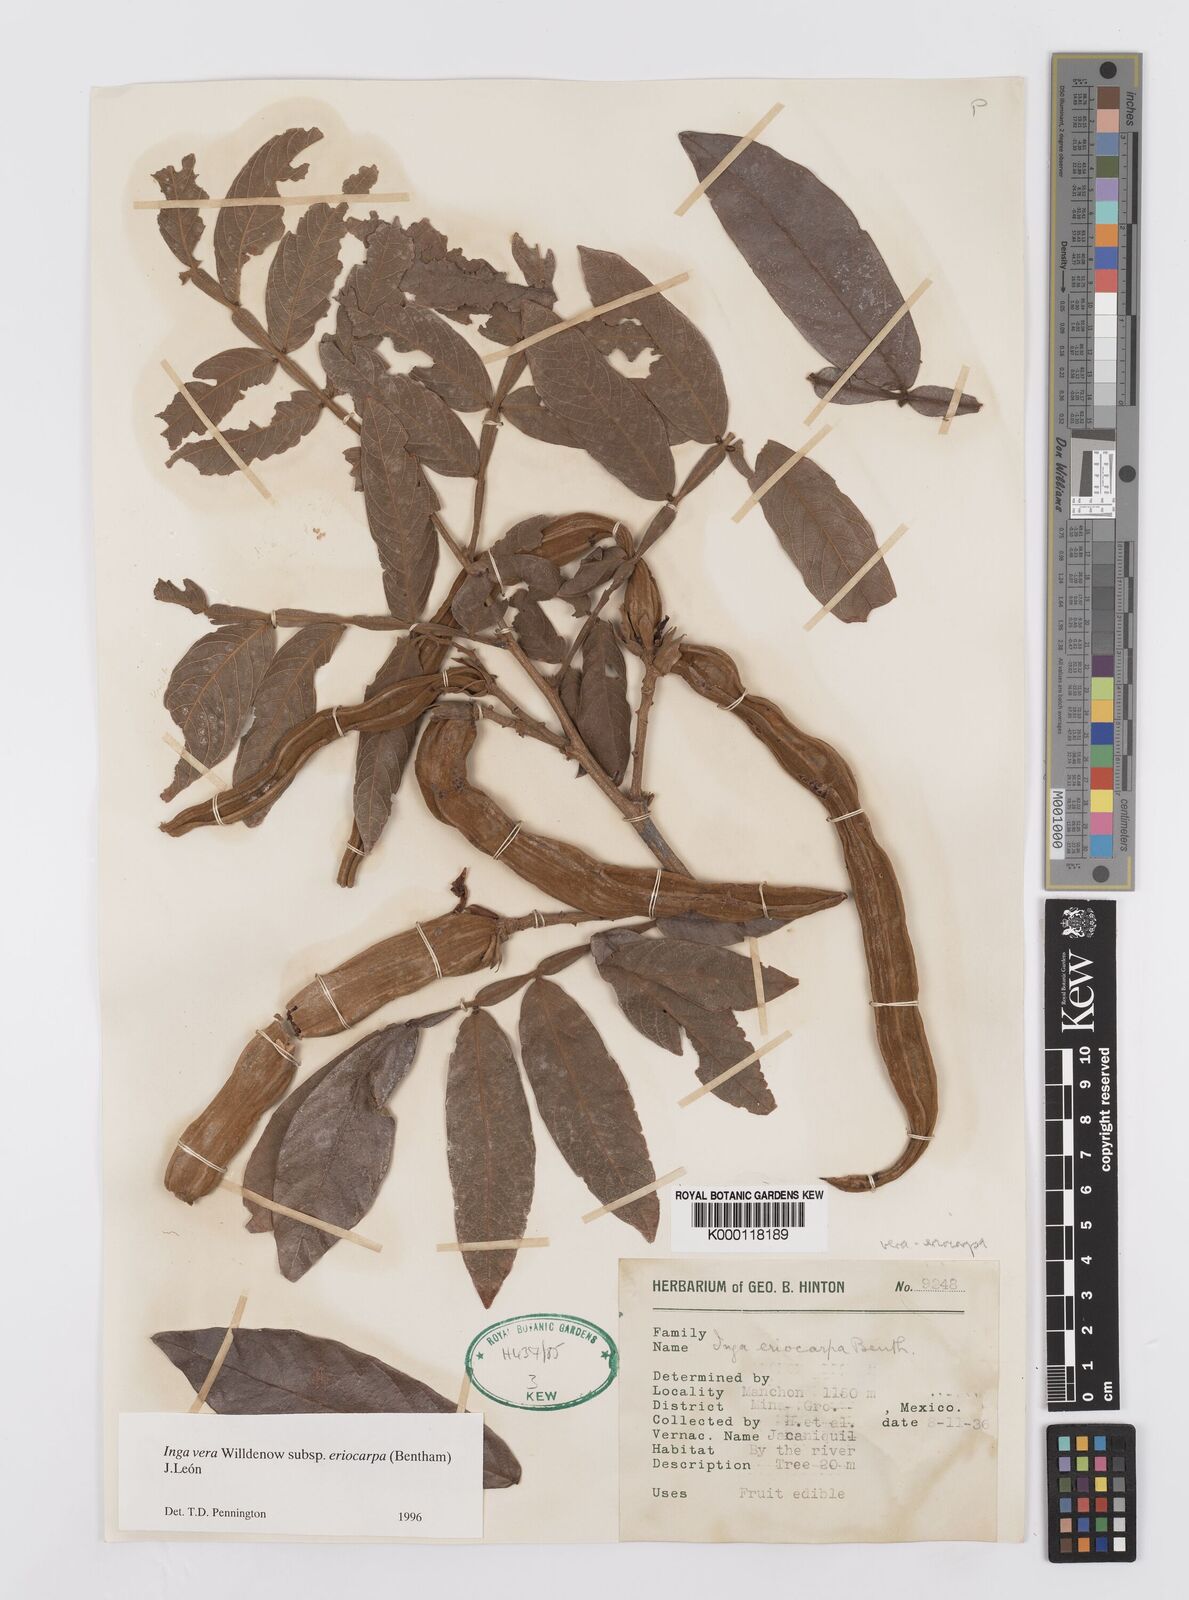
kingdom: Plantae
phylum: Tracheophyta
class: Magnoliopsida
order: Fabales
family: Fabaceae
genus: Inga
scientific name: Inga vera
